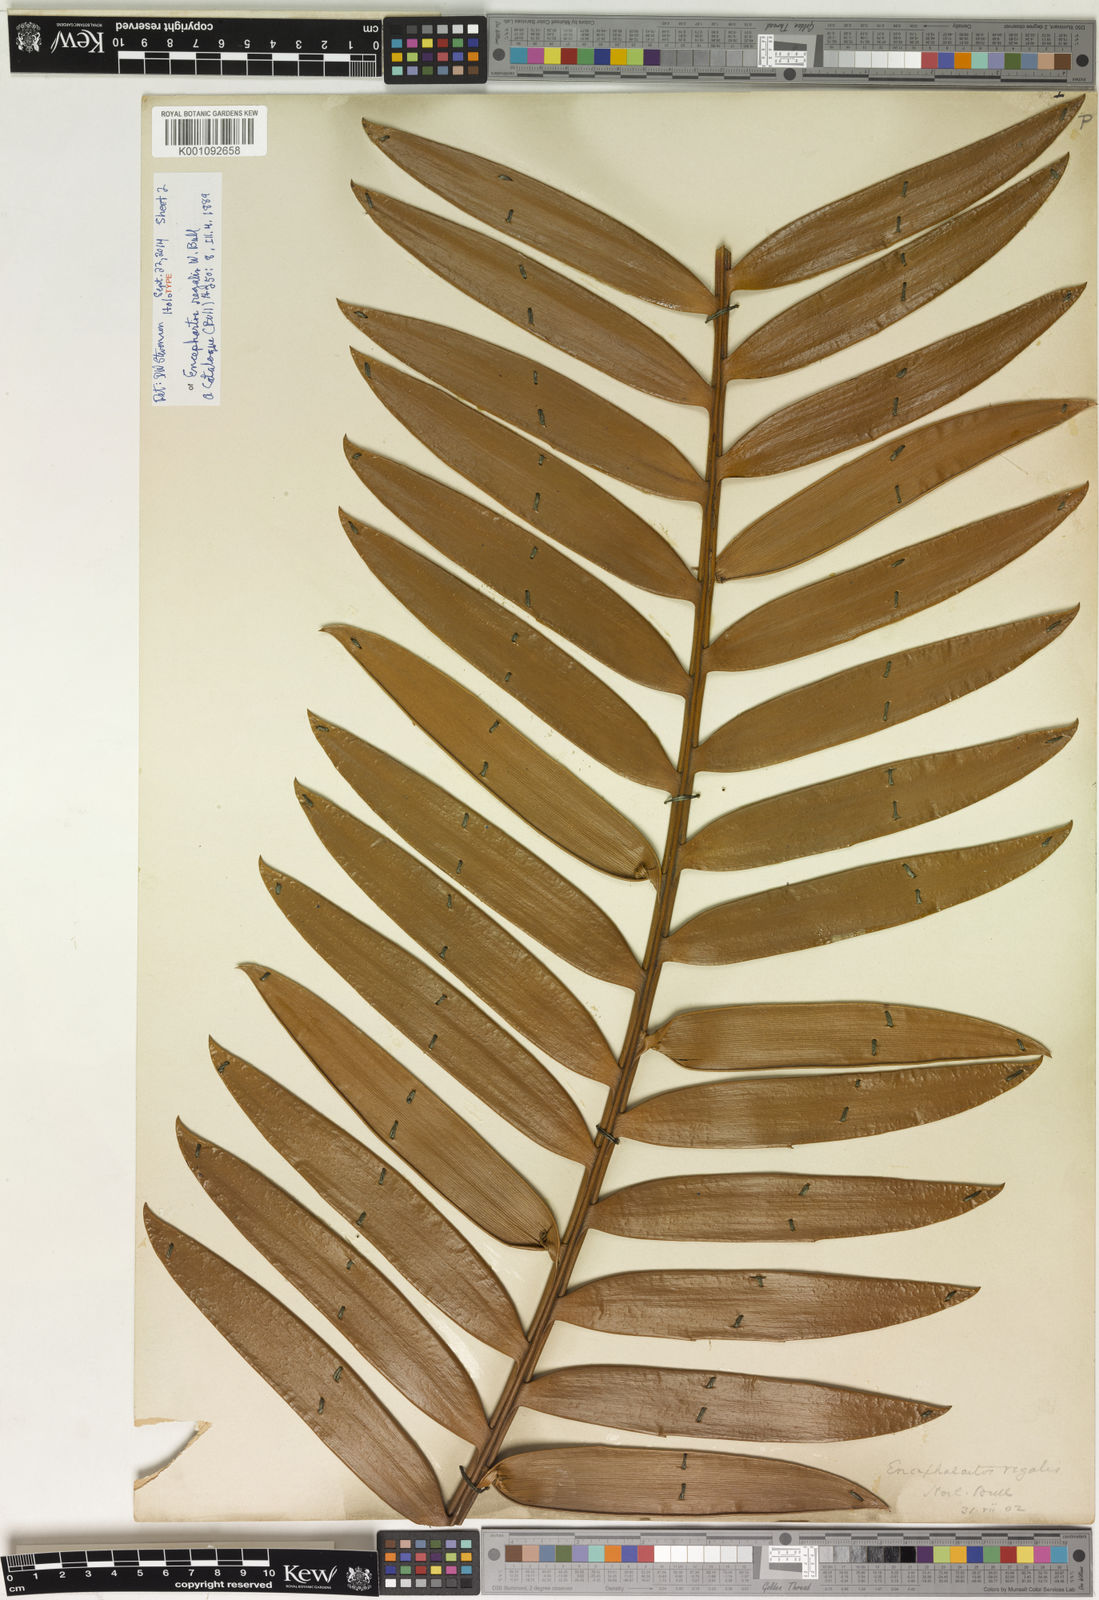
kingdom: Plantae
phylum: Tracheophyta
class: Cycadopsida
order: Cycadales
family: Zamiaceae
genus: Encephalartos
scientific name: Encephalartos altensteinii
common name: Eastern cape cycad
